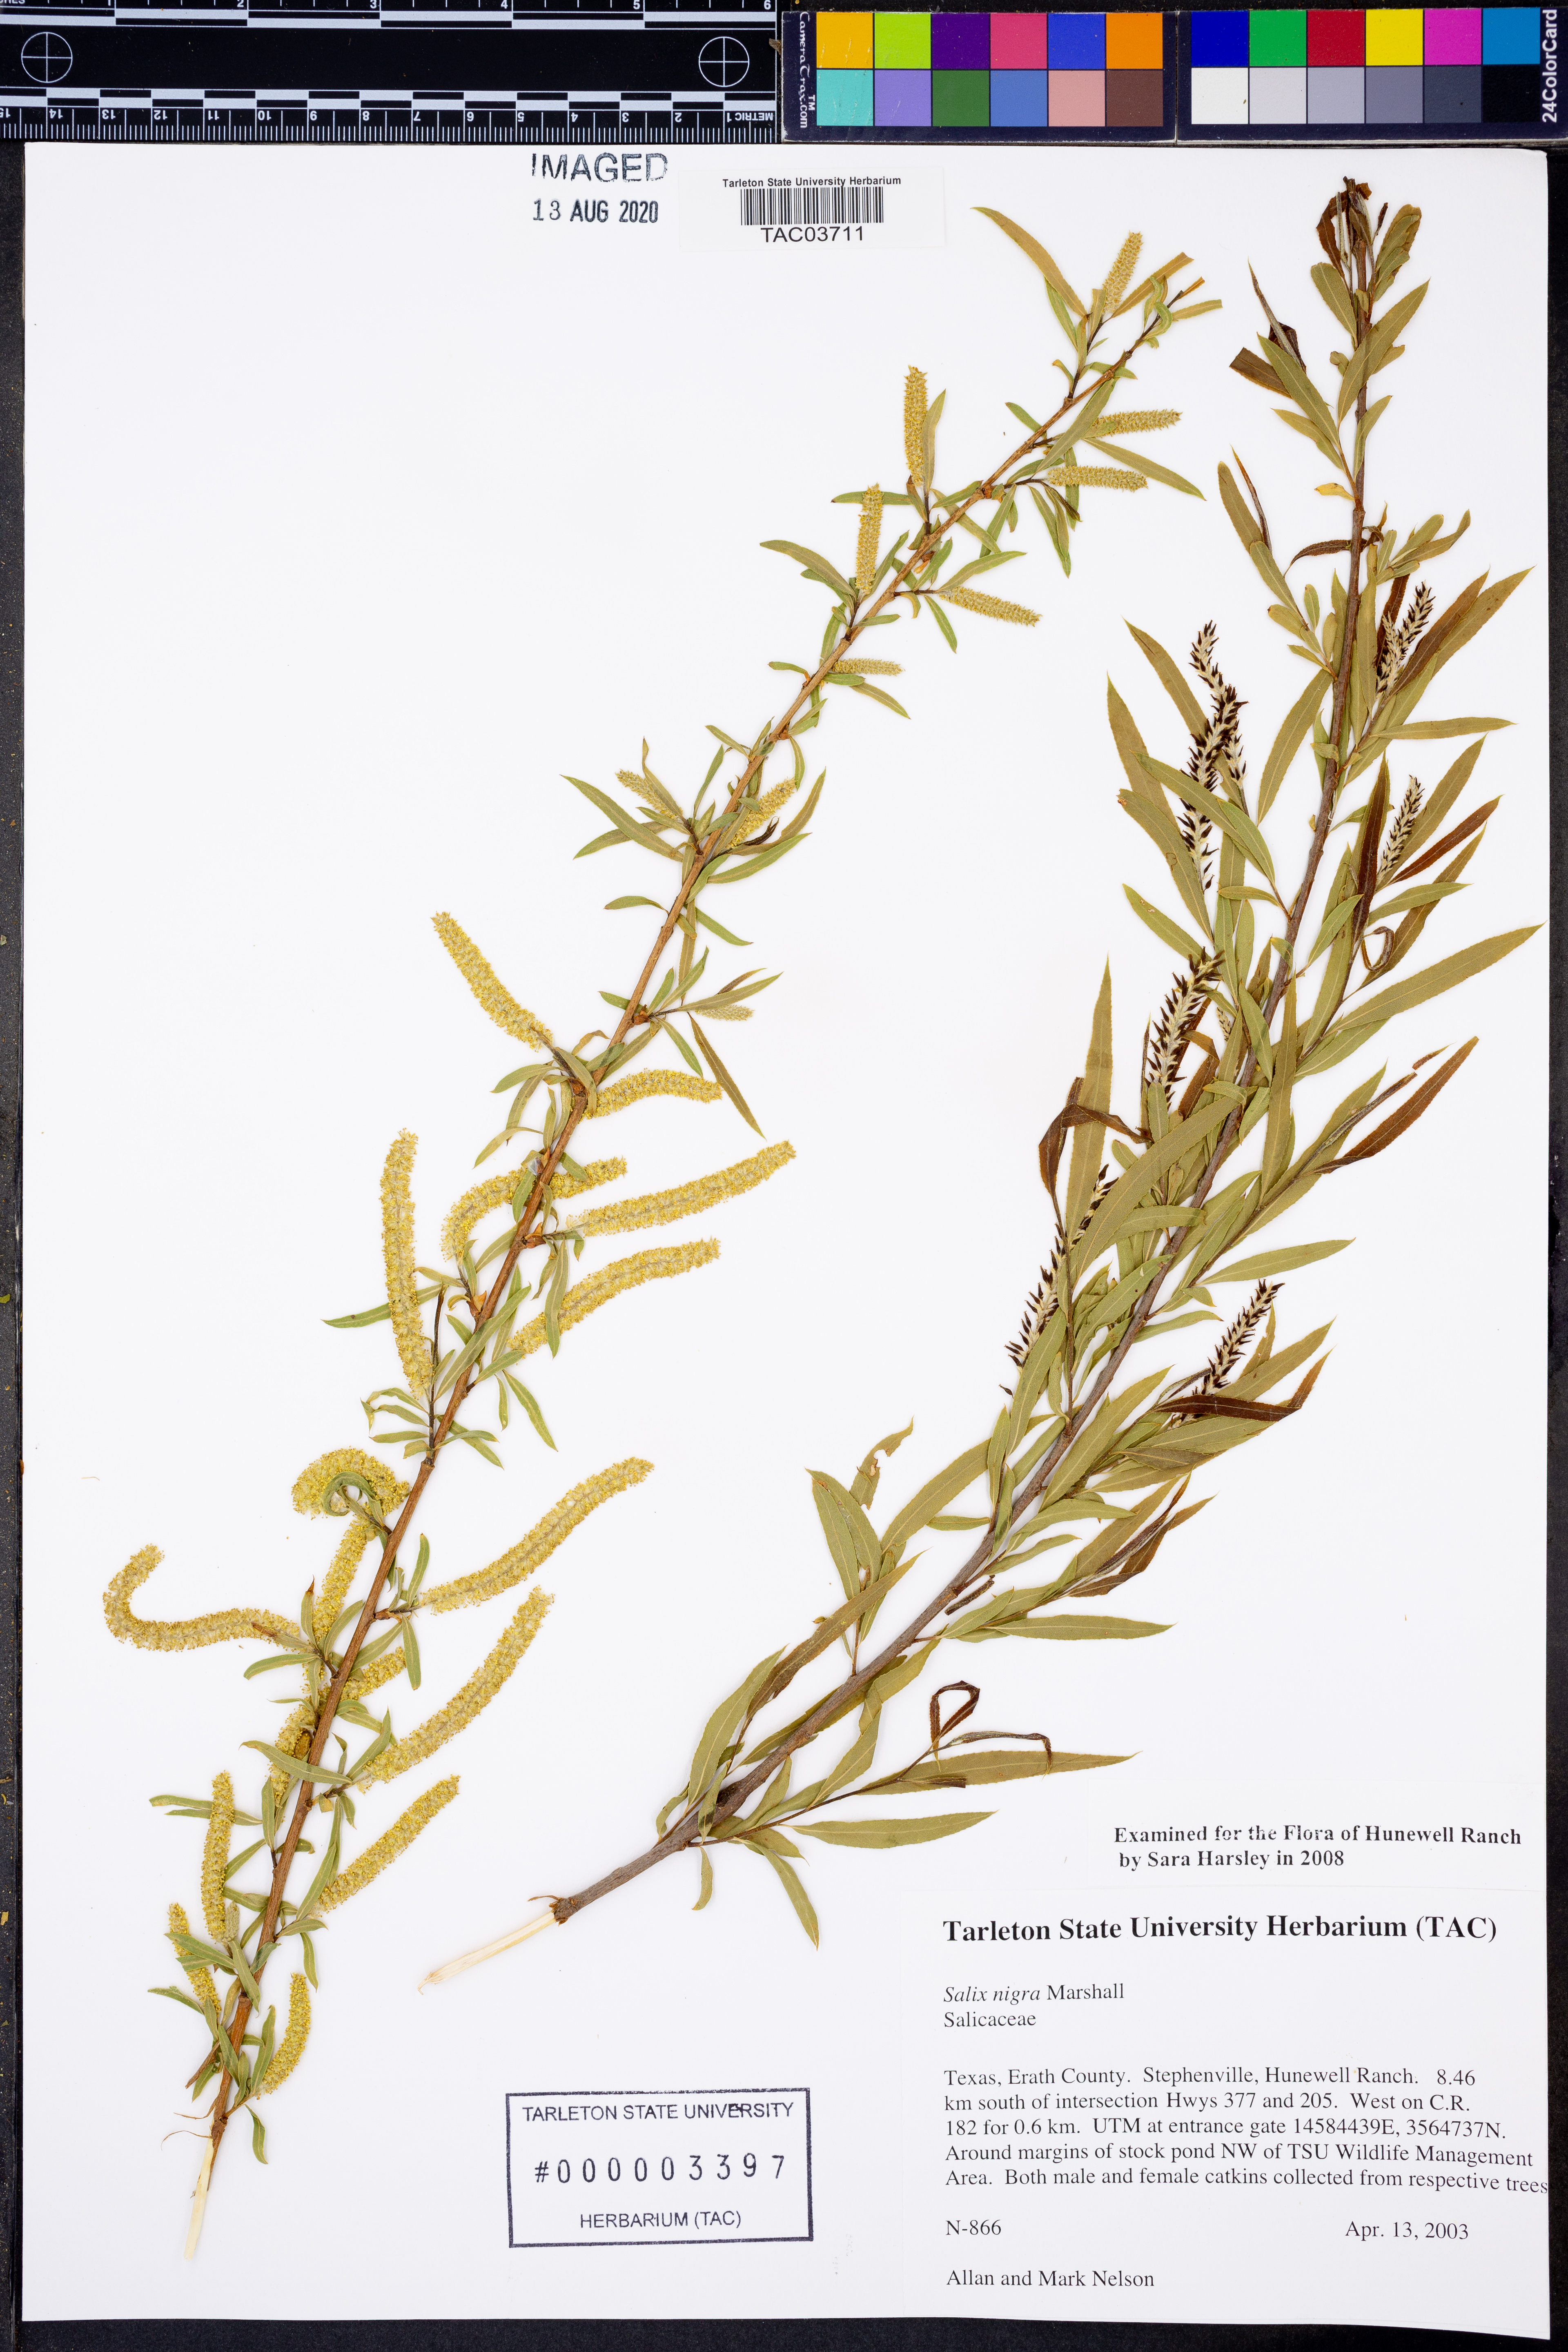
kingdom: Plantae
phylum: Tracheophyta
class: Magnoliopsida
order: Malpighiales
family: Salicaceae
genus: Salix
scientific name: Salix nigra
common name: Black willow
